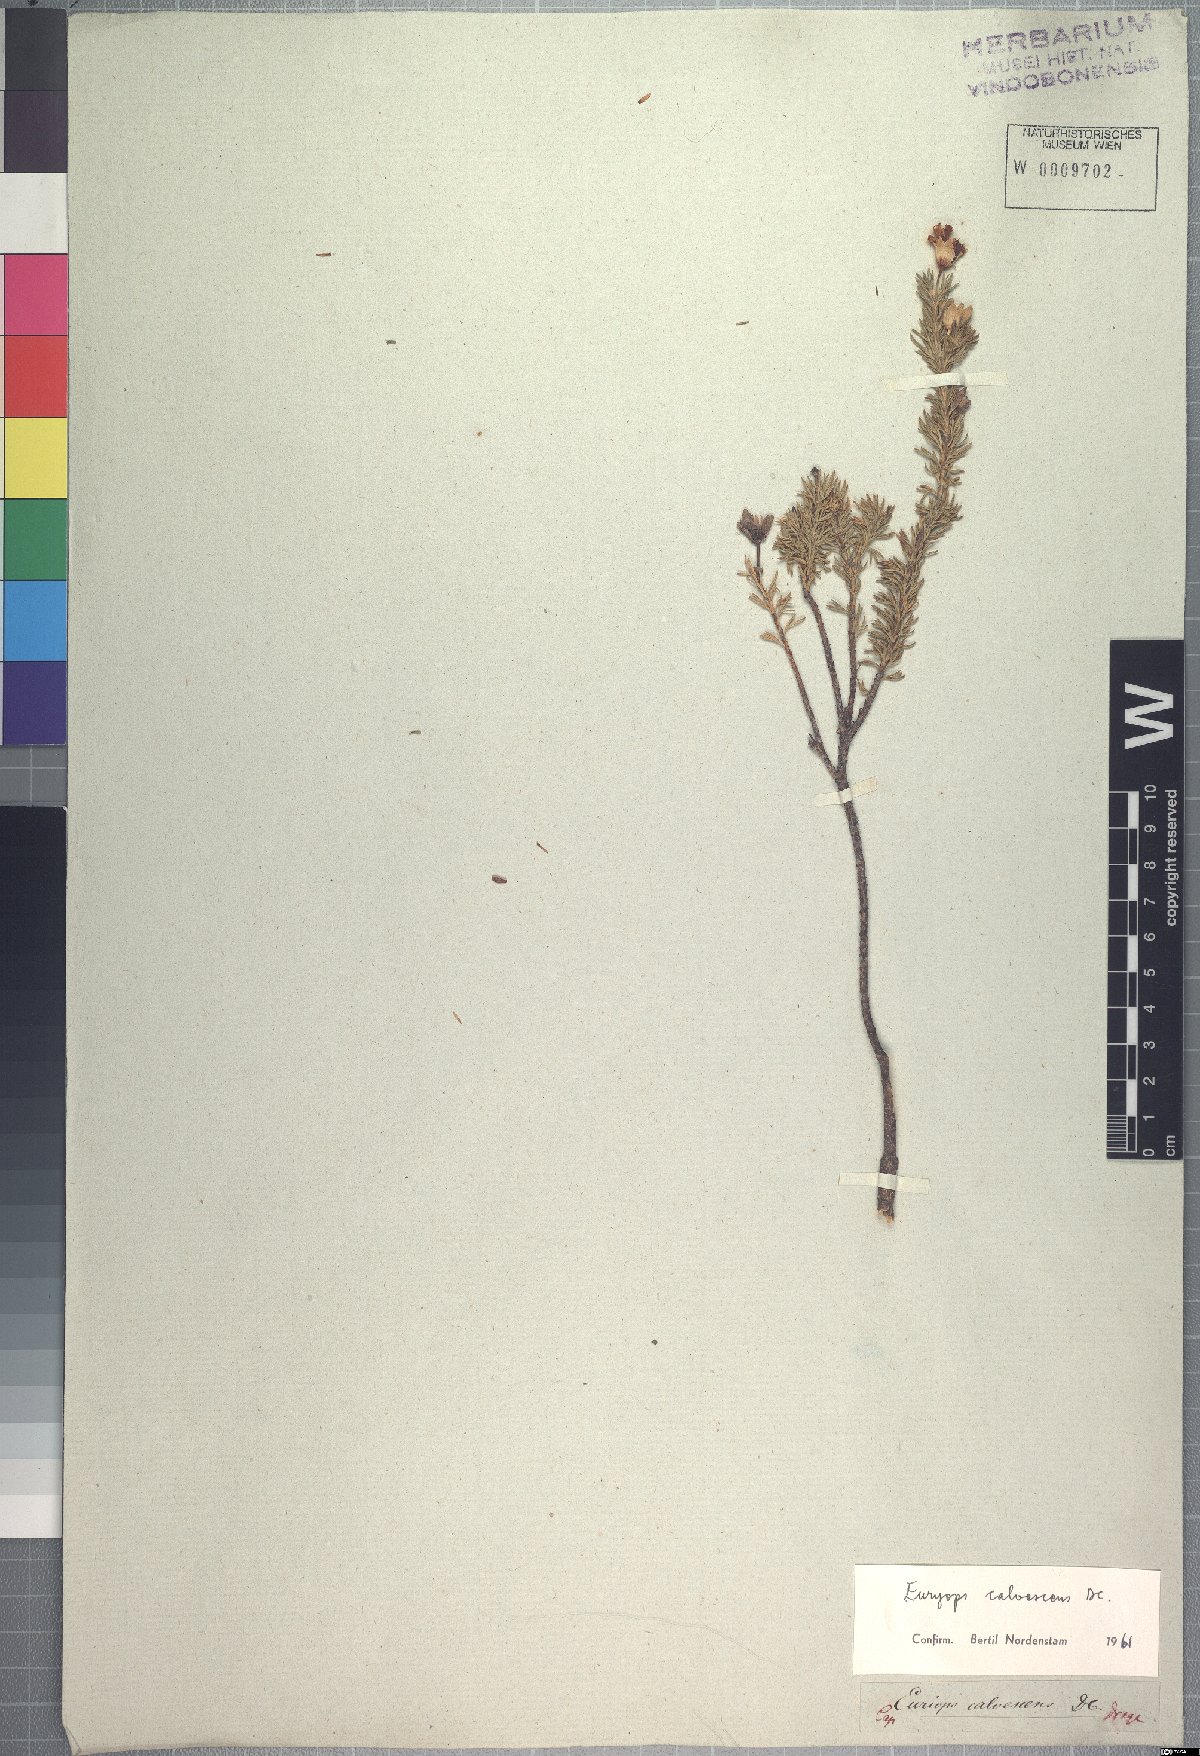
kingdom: Plantae
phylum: Tracheophyta
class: Magnoliopsida
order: Asterales
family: Asteraceae
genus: Euryops
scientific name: Euryops calvescens
